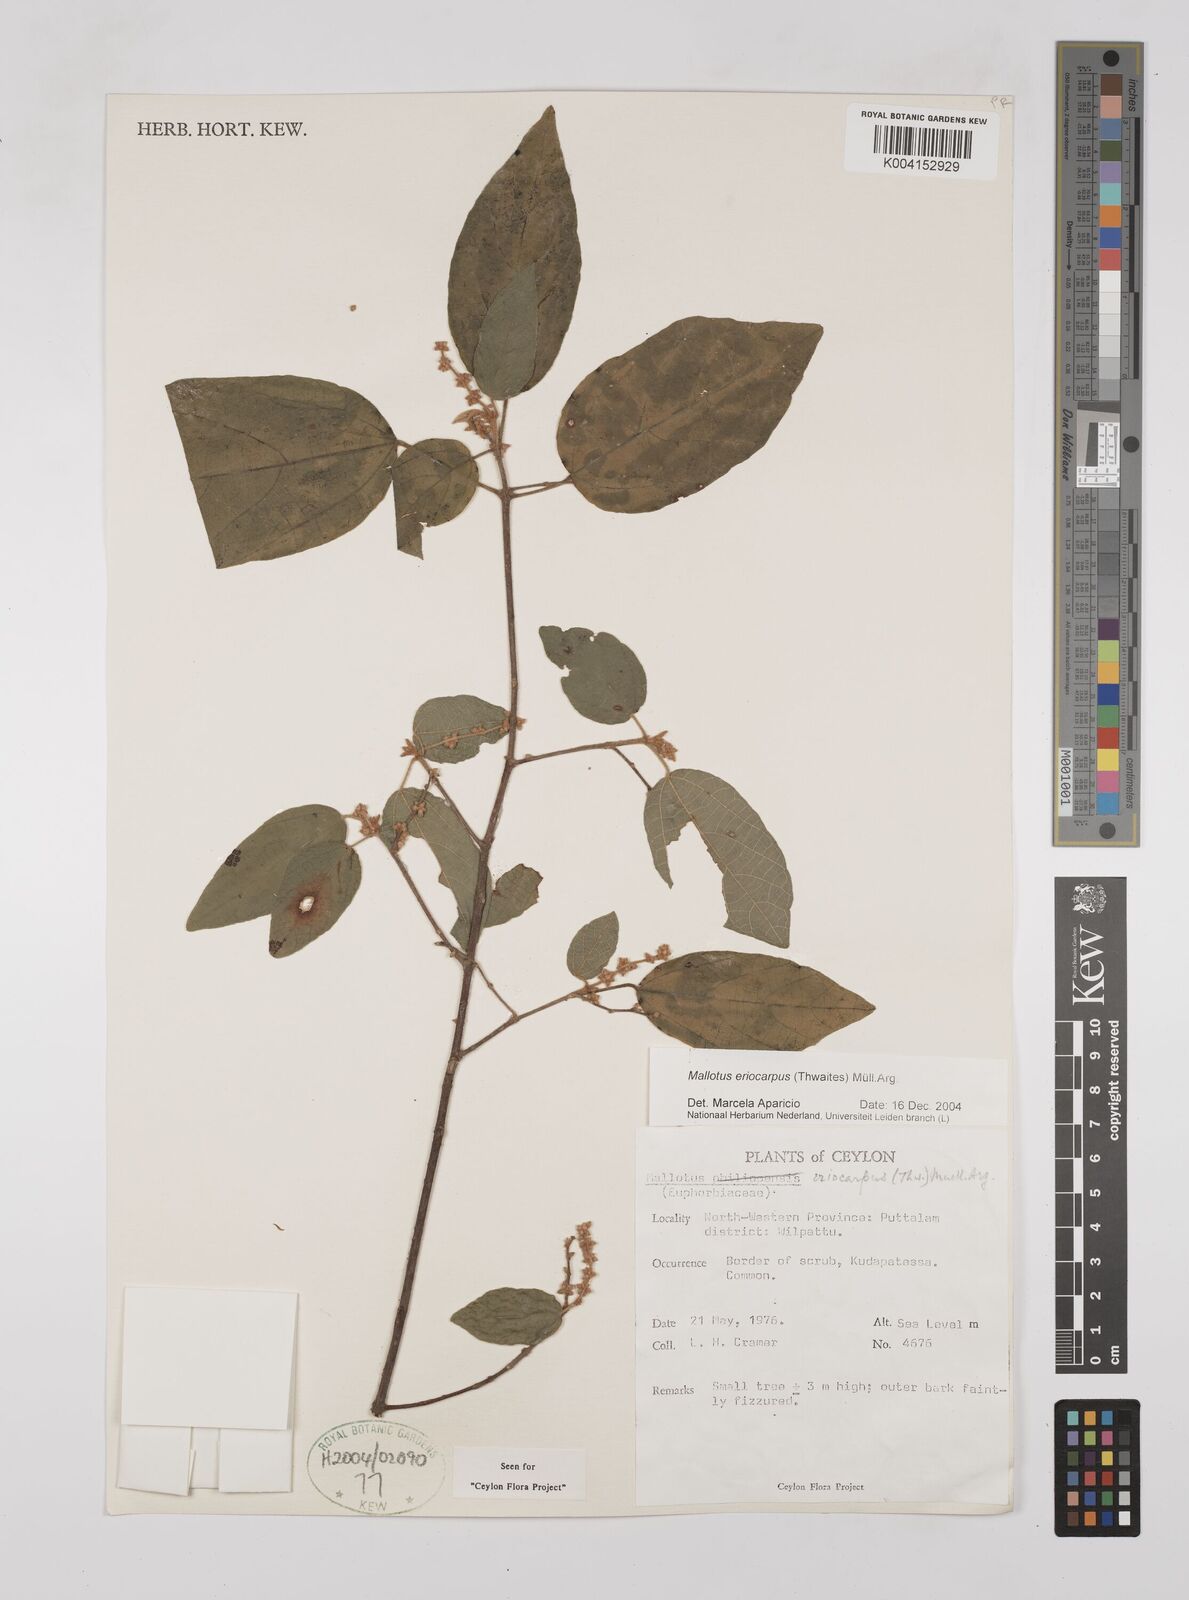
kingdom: Plantae
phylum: Tracheophyta
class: Magnoliopsida
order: Malpighiales
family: Euphorbiaceae
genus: Mallotus
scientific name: Mallotus eriocarpus
